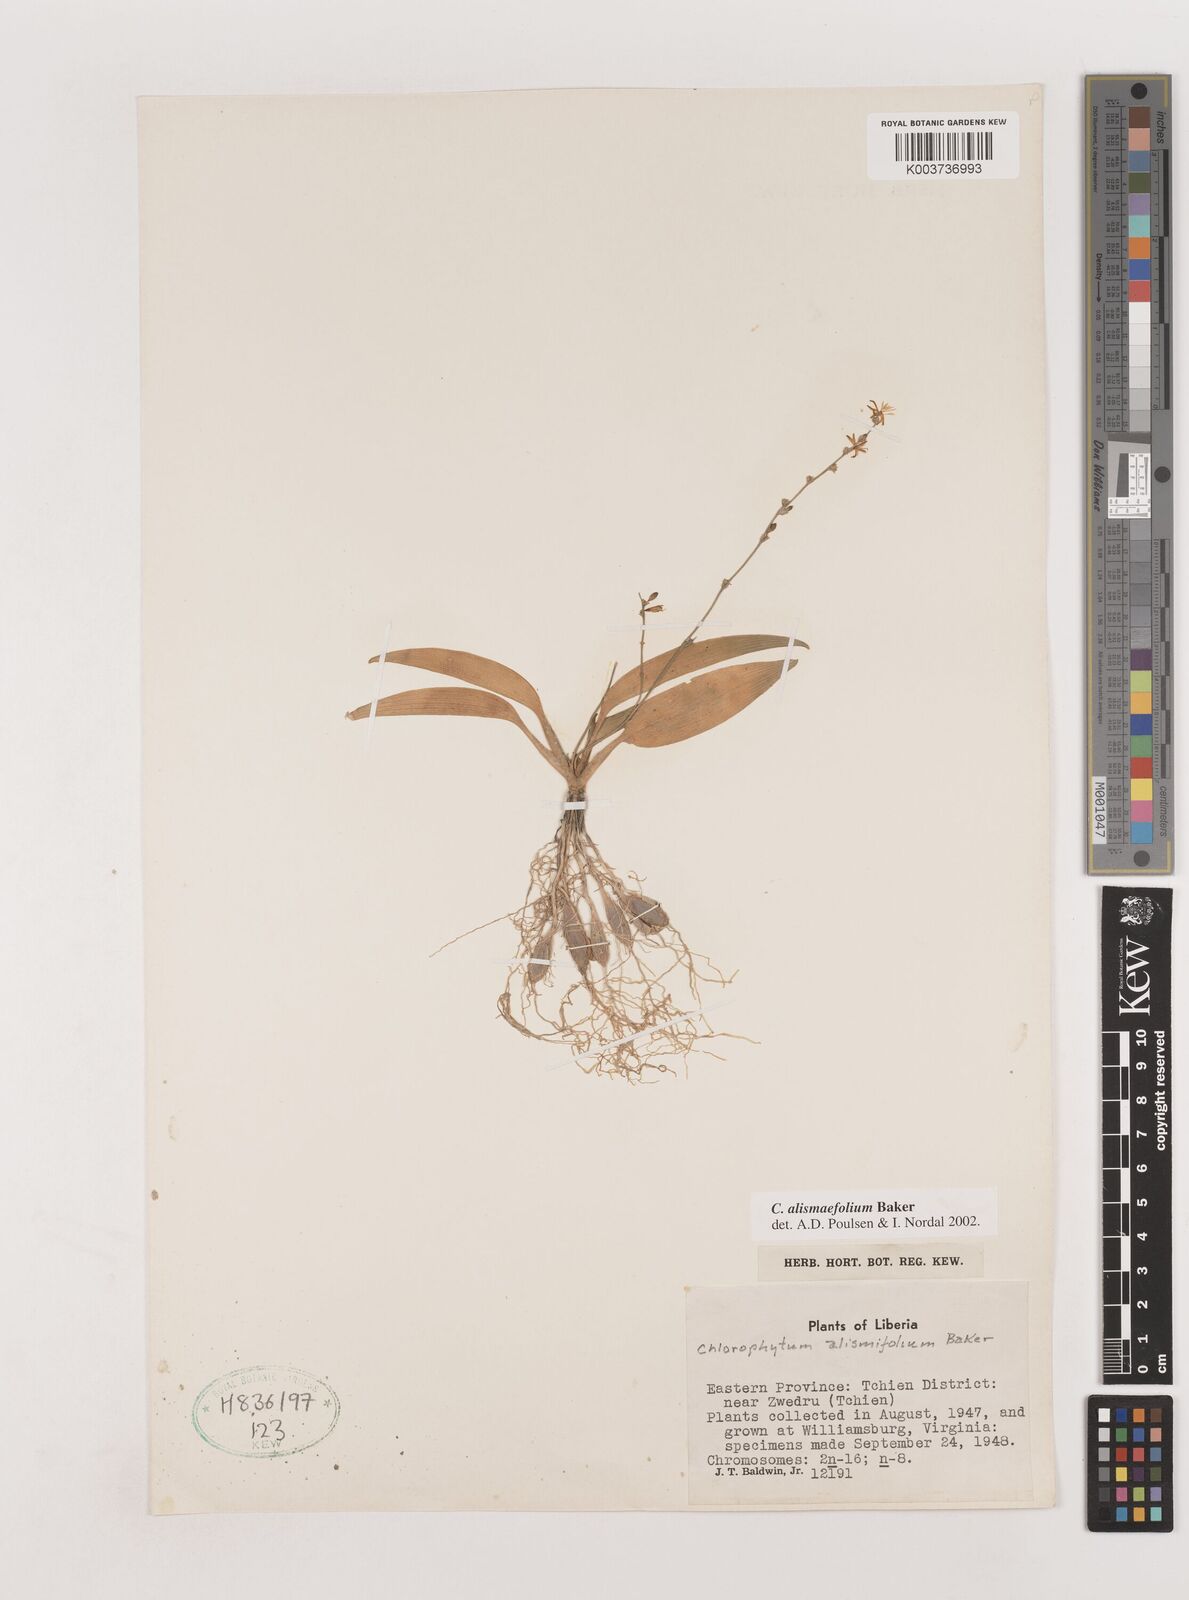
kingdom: Plantae
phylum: Tracheophyta
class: Liliopsida
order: Asparagales
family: Asparagaceae
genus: Chlorophytum
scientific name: Chlorophytum alismifolium
